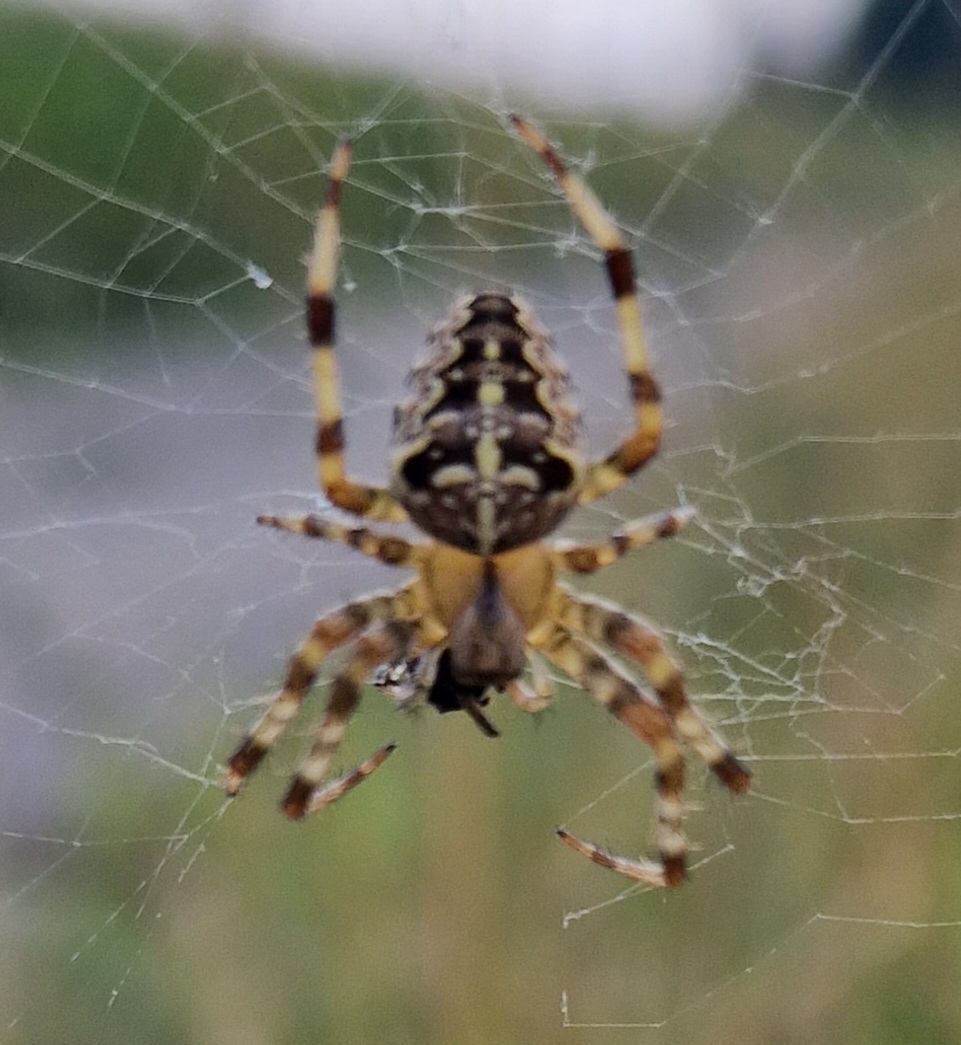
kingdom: Animalia
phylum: Arthropoda
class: Arachnida
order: Araneae
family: Araneidae
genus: Araneus
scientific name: Araneus diadematus
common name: Korsedderkop
